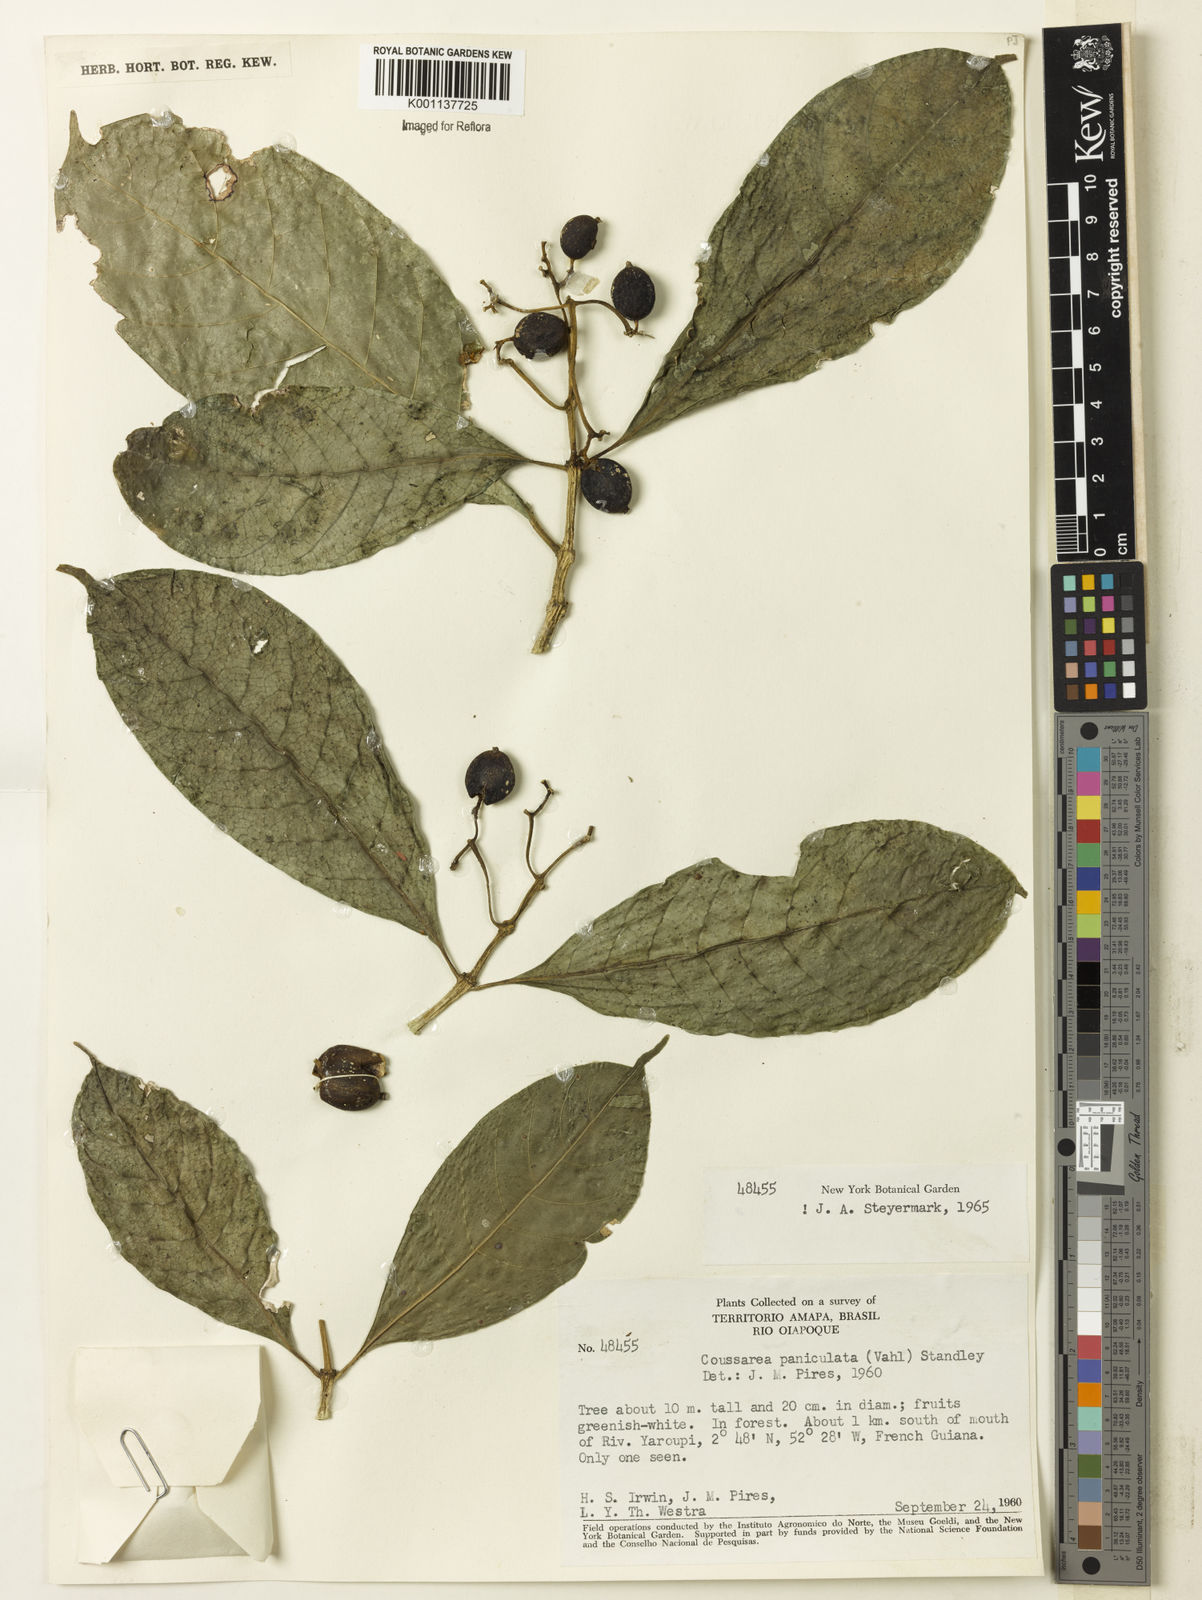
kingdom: Plantae
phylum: Tracheophyta
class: Magnoliopsida
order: Gentianales
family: Rubiaceae
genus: Coussarea
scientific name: Coussarea paniculata
